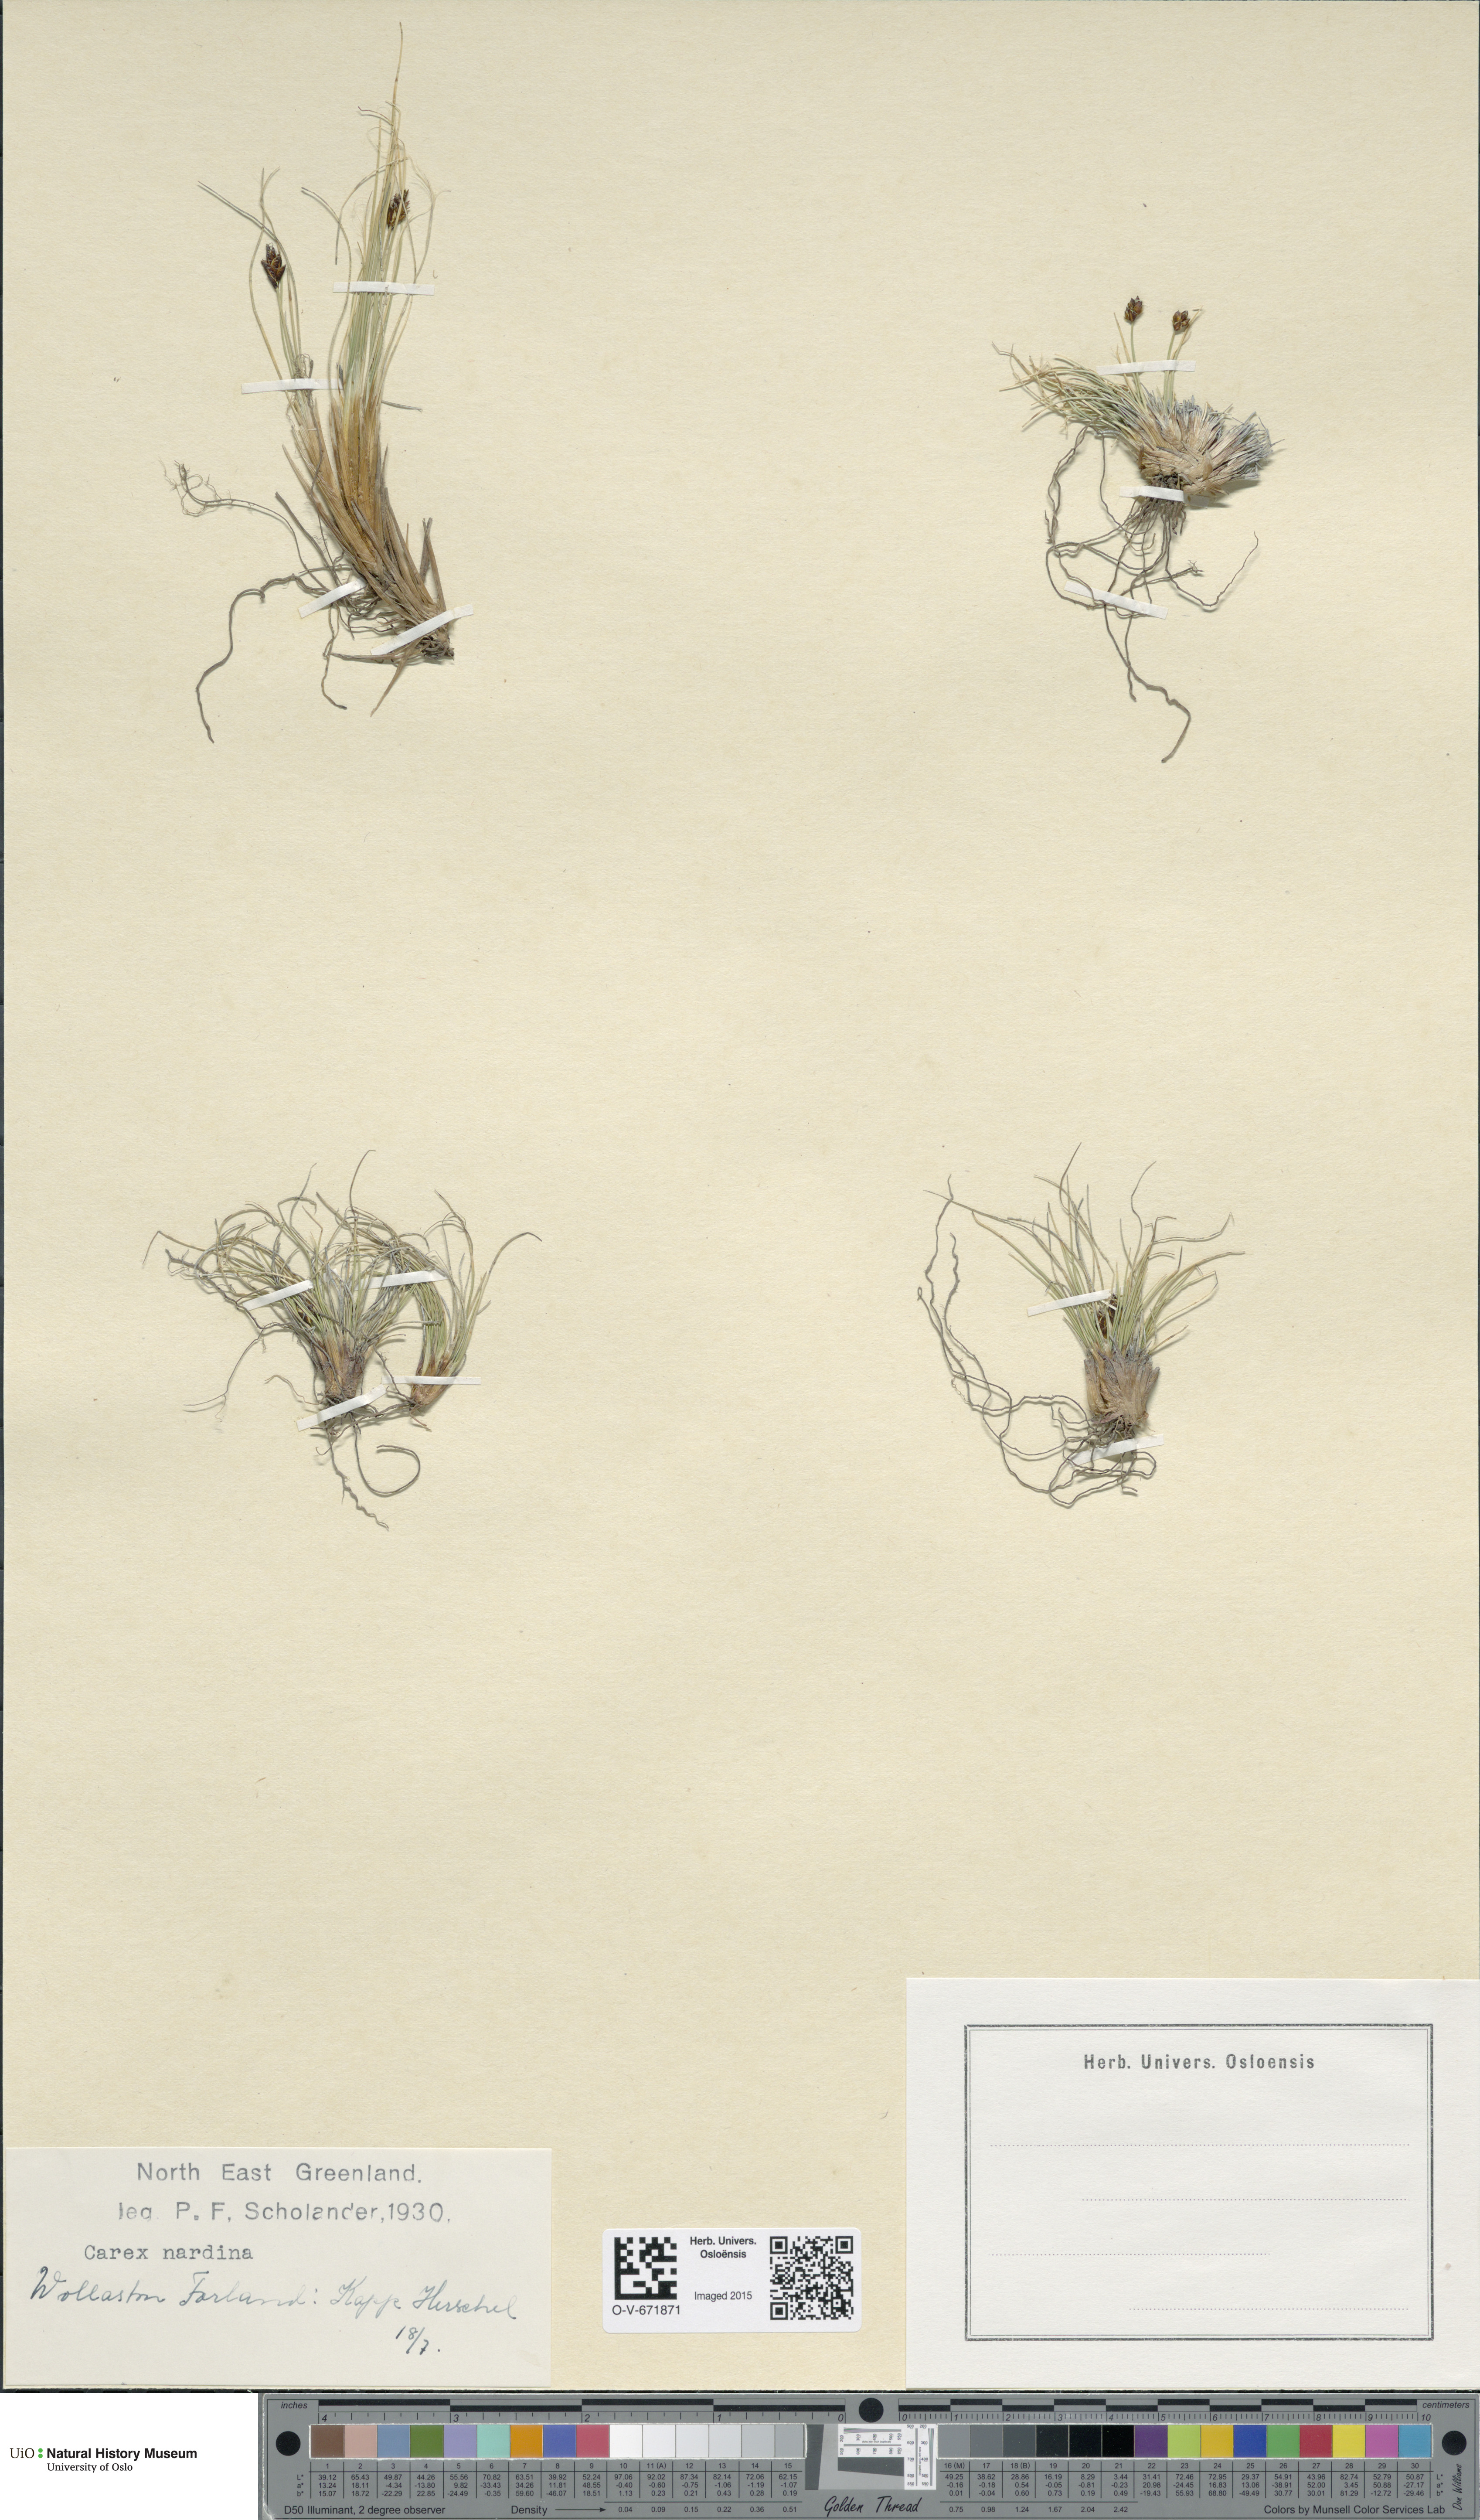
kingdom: Plantae
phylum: Tracheophyta
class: Liliopsida
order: Poales
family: Cyperaceae
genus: Carex
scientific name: Carex nardina
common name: Nard sedge
